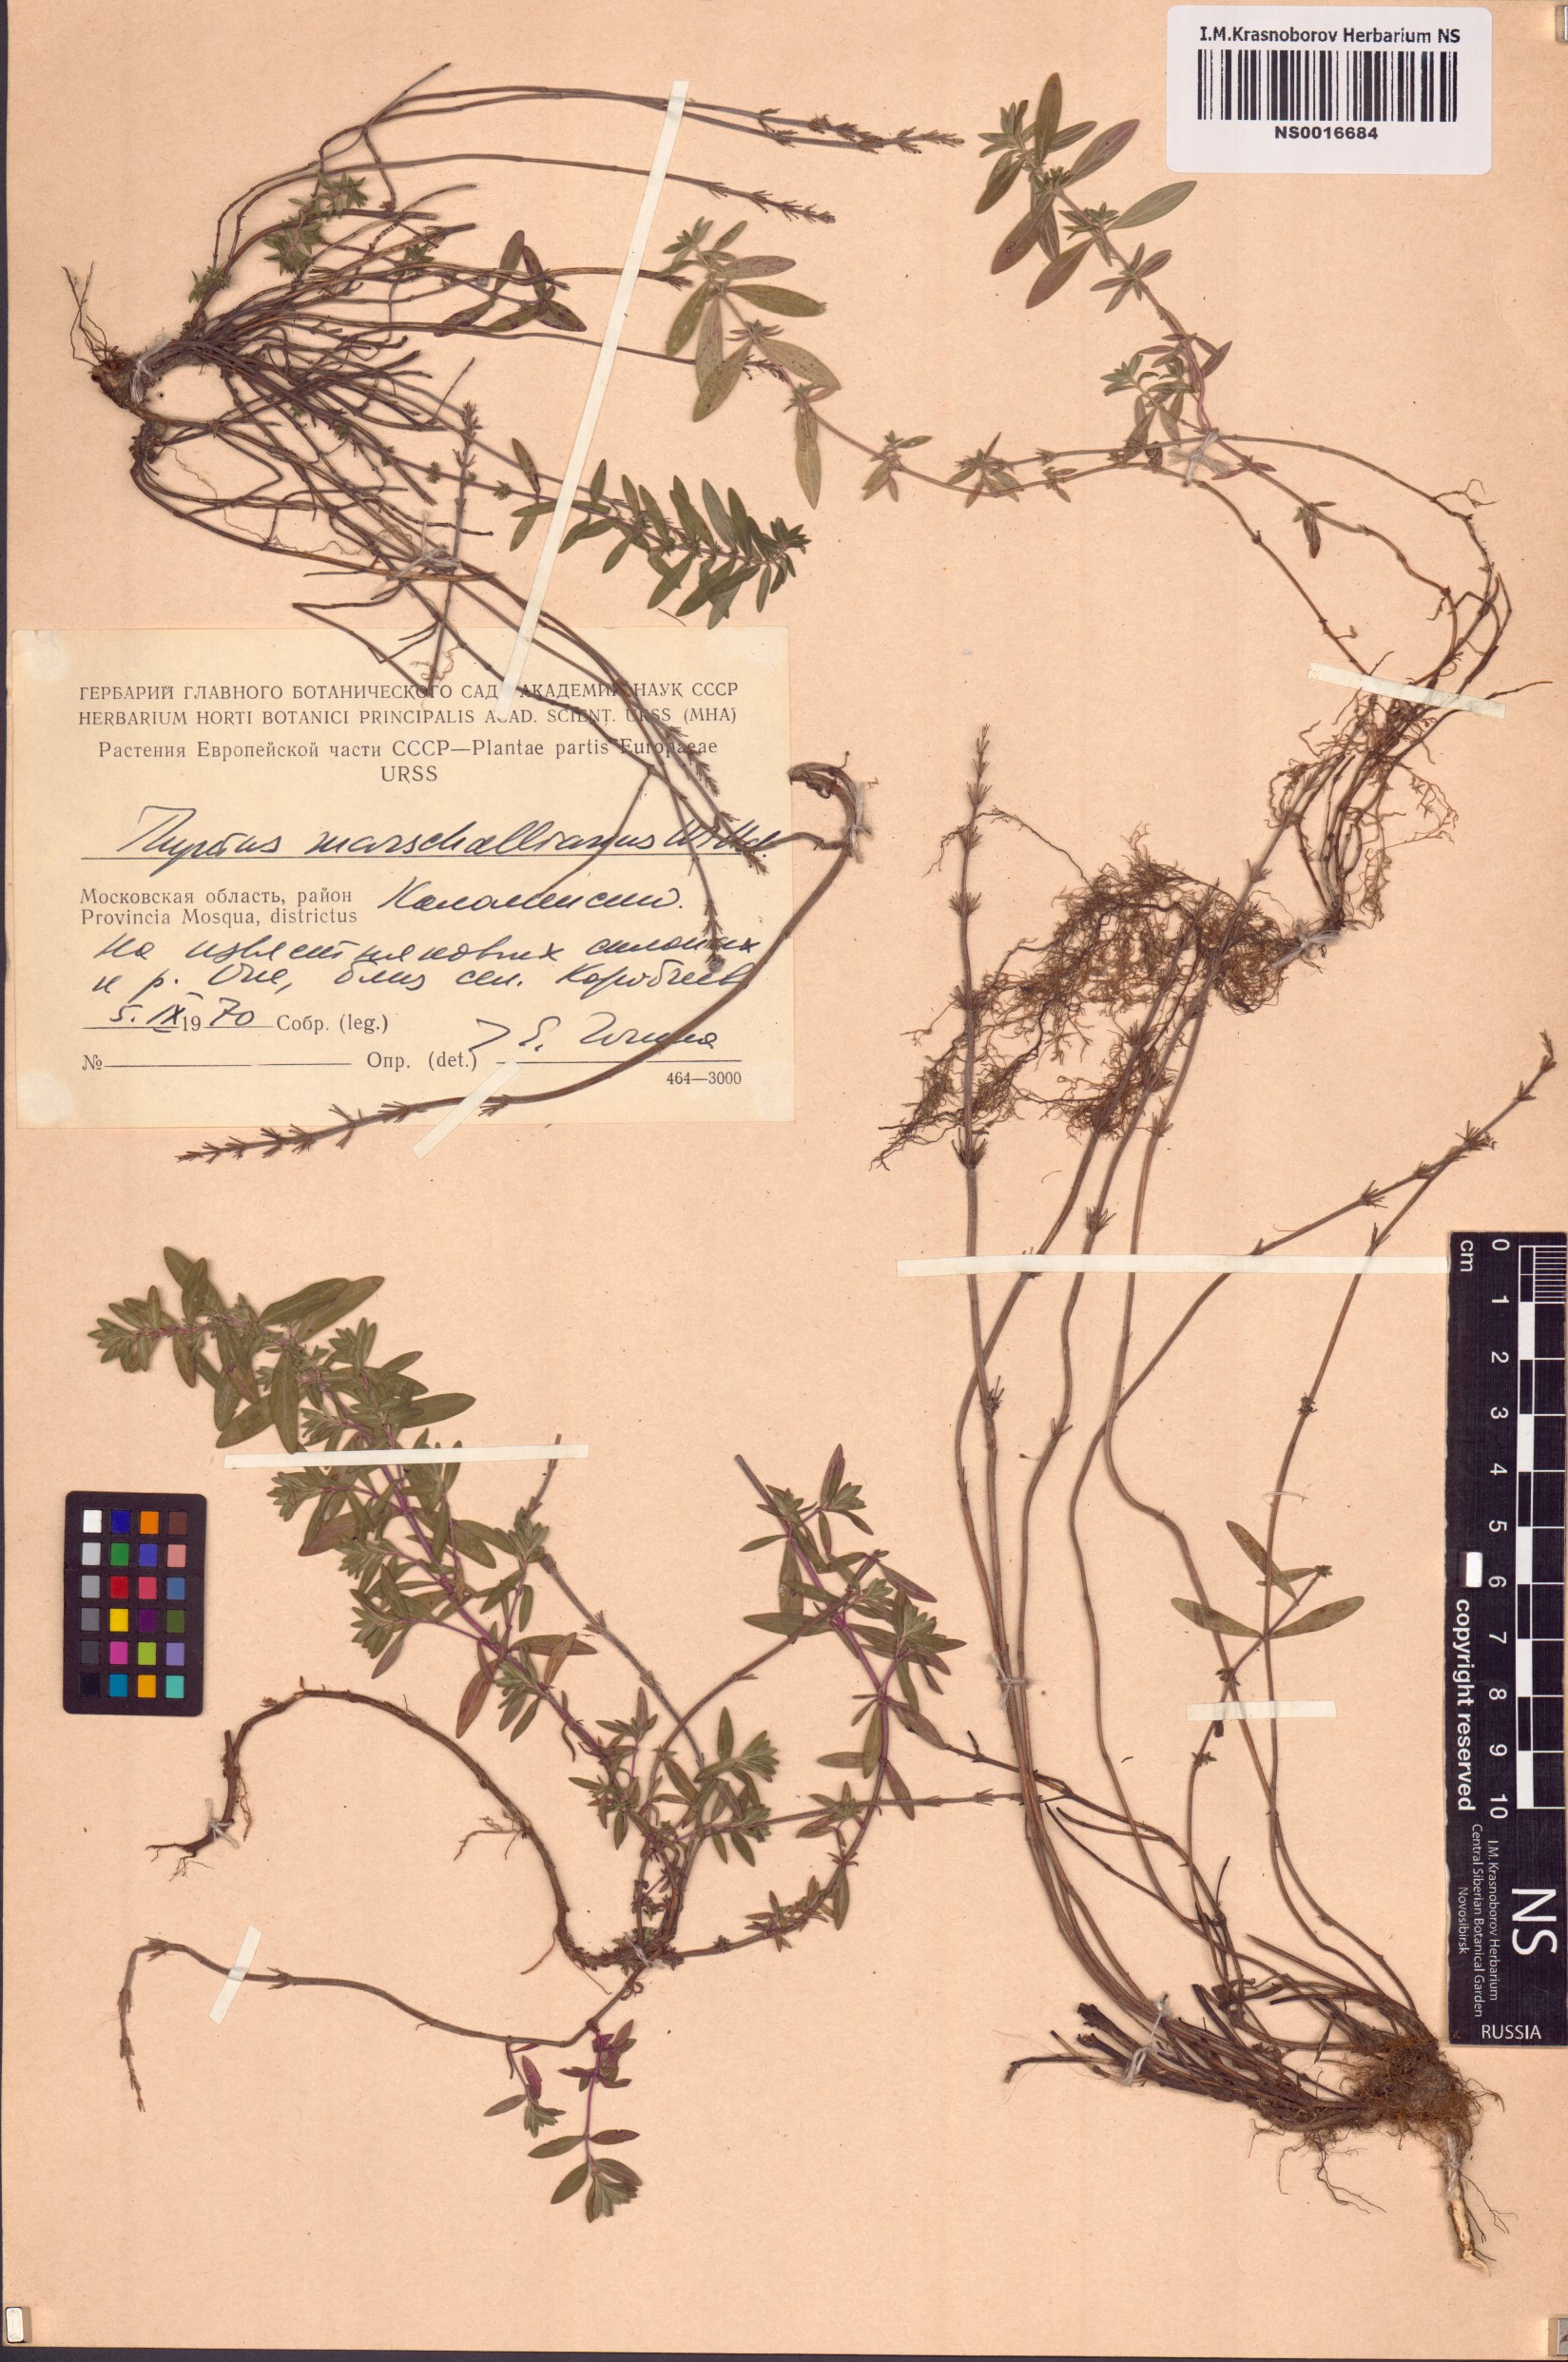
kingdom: Plantae
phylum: Tracheophyta
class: Magnoliopsida
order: Lamiales
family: Lamiaceae
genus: Thymus
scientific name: Thymus pannonicus
